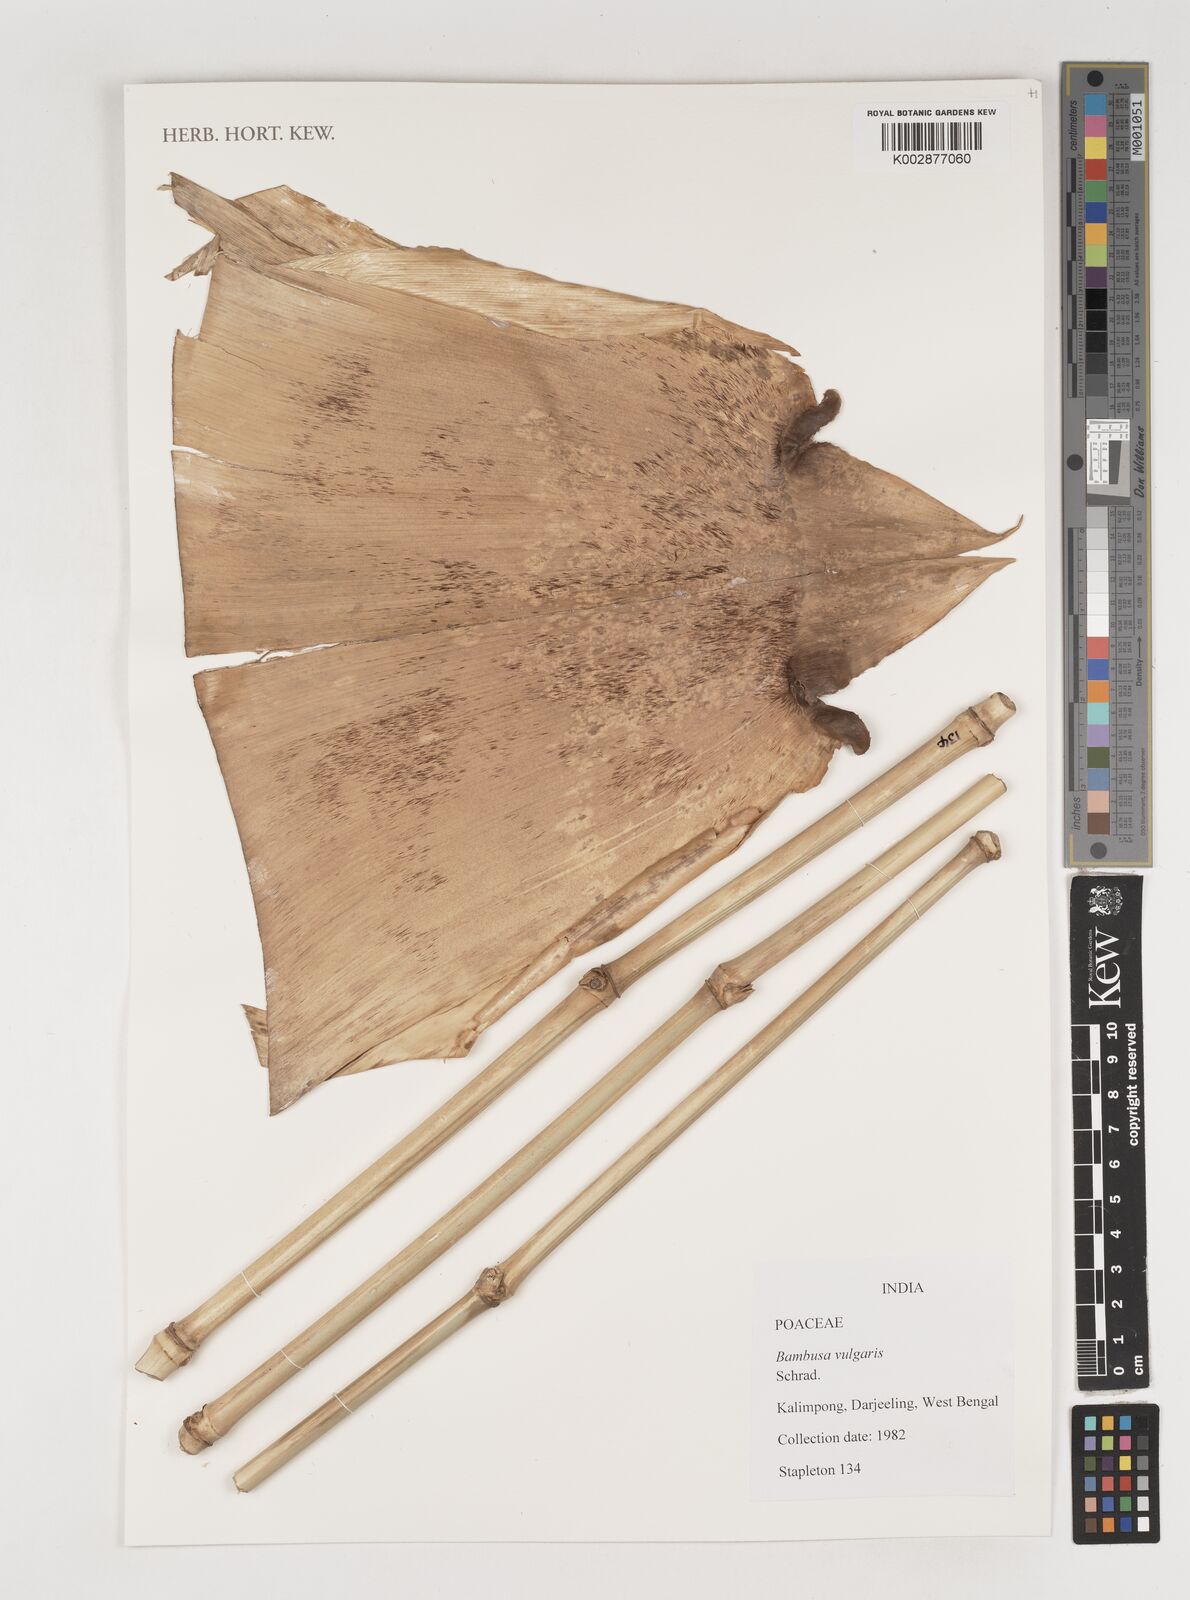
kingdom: Plantae
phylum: Tracheophyta
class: Liliopsida
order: Poales
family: Poaceae
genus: Bambusa
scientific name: Bambusa vulgaris
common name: Common bamboo
